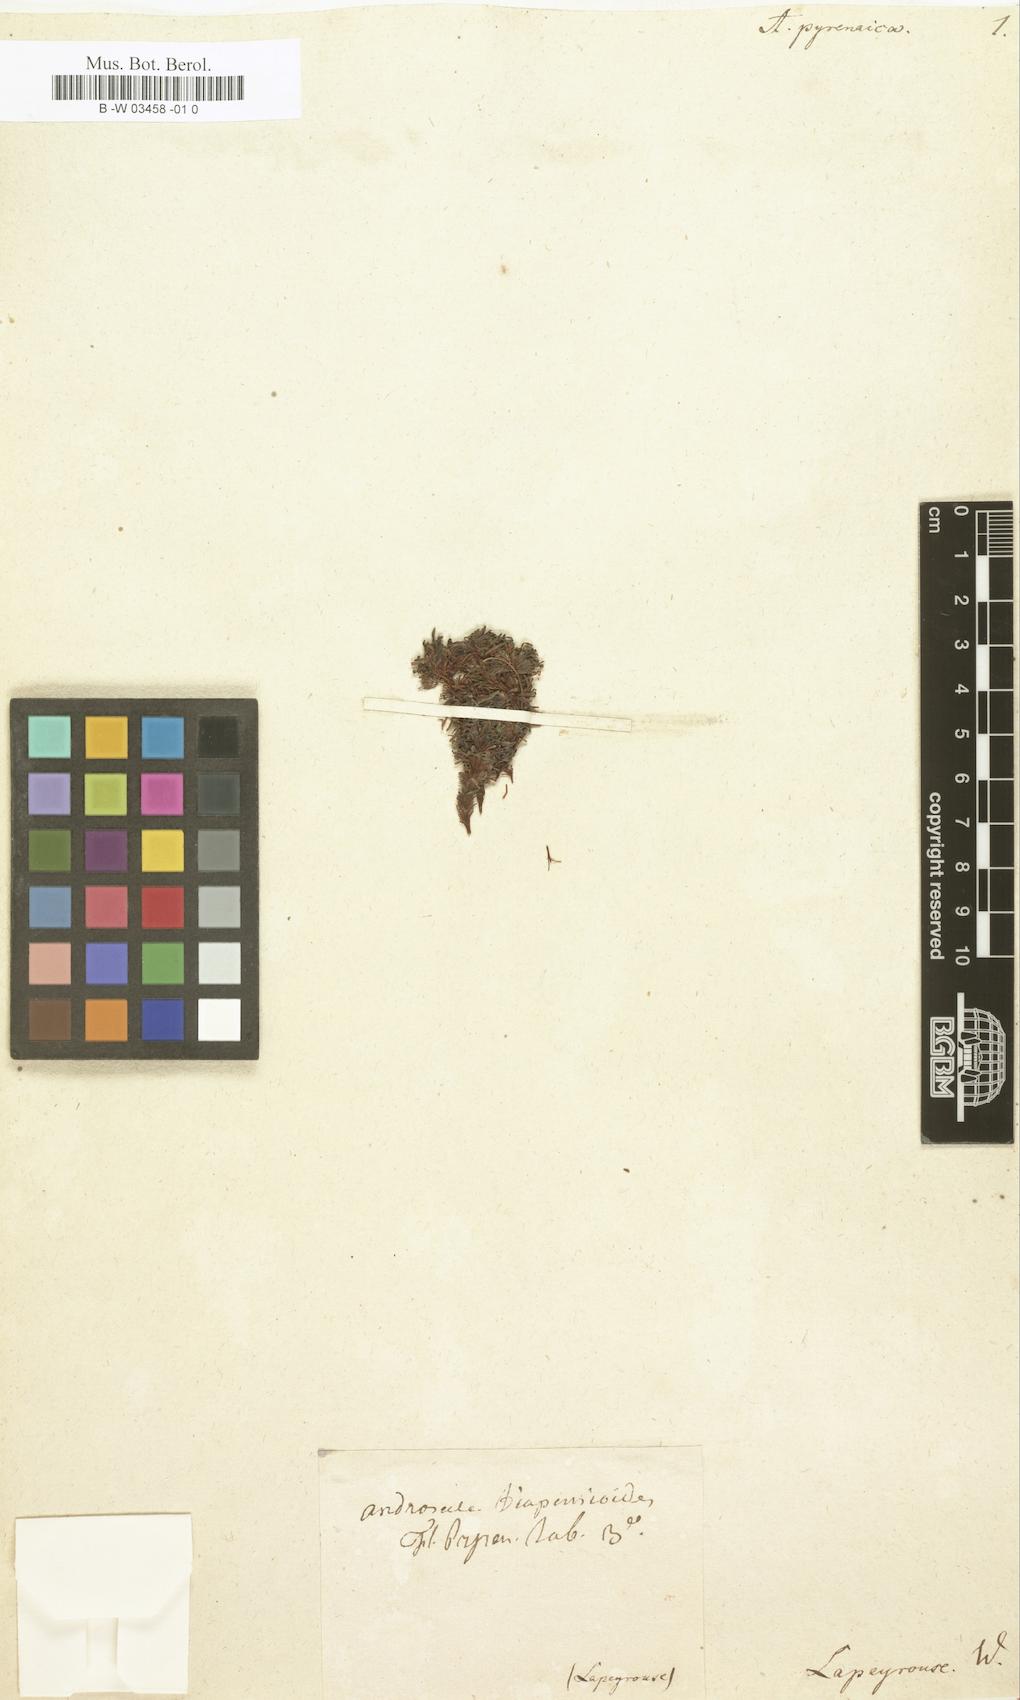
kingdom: Plantae
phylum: Tracheophyta
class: Magnoliopsida
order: Ericales
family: Primulaceae
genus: Androsace
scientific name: Androsace pyrenaica
